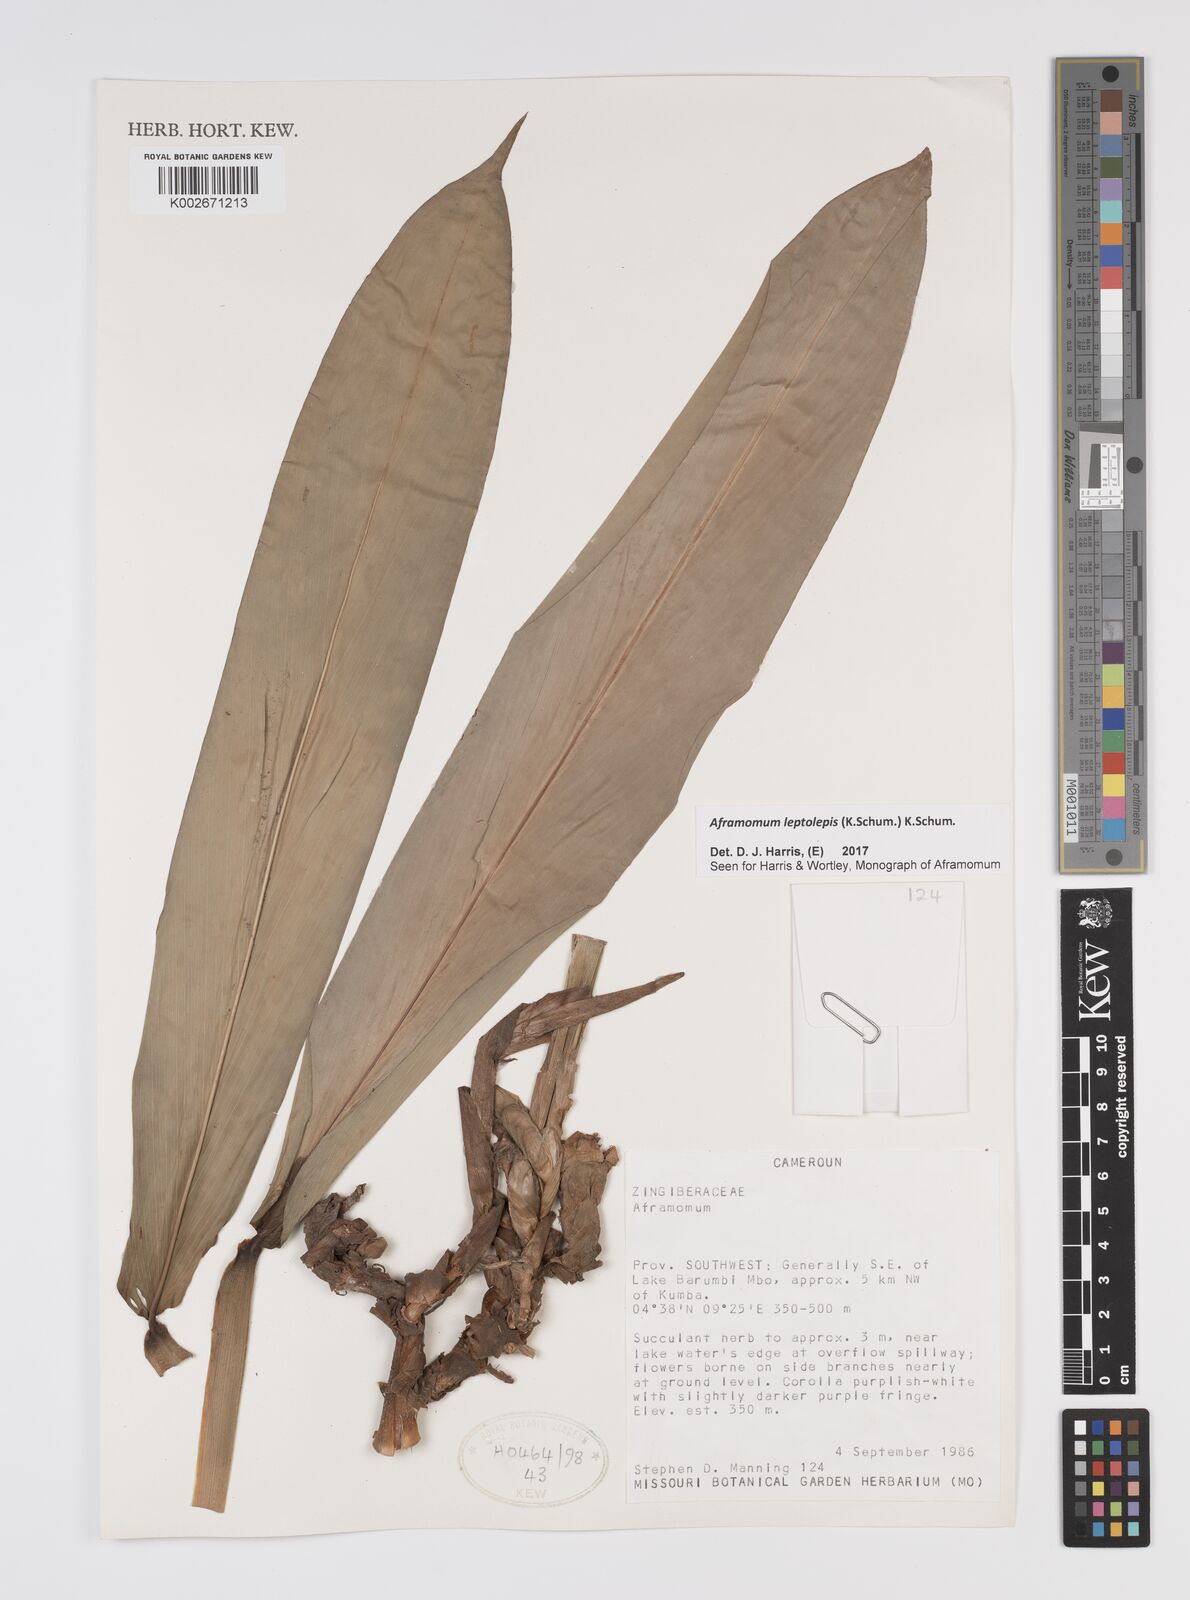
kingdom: Plantae
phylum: Tracheophyta
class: Liliopsida
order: Zingiberales
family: Zingiberaceae
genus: Aframomum
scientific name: Aframomum leptolepis
